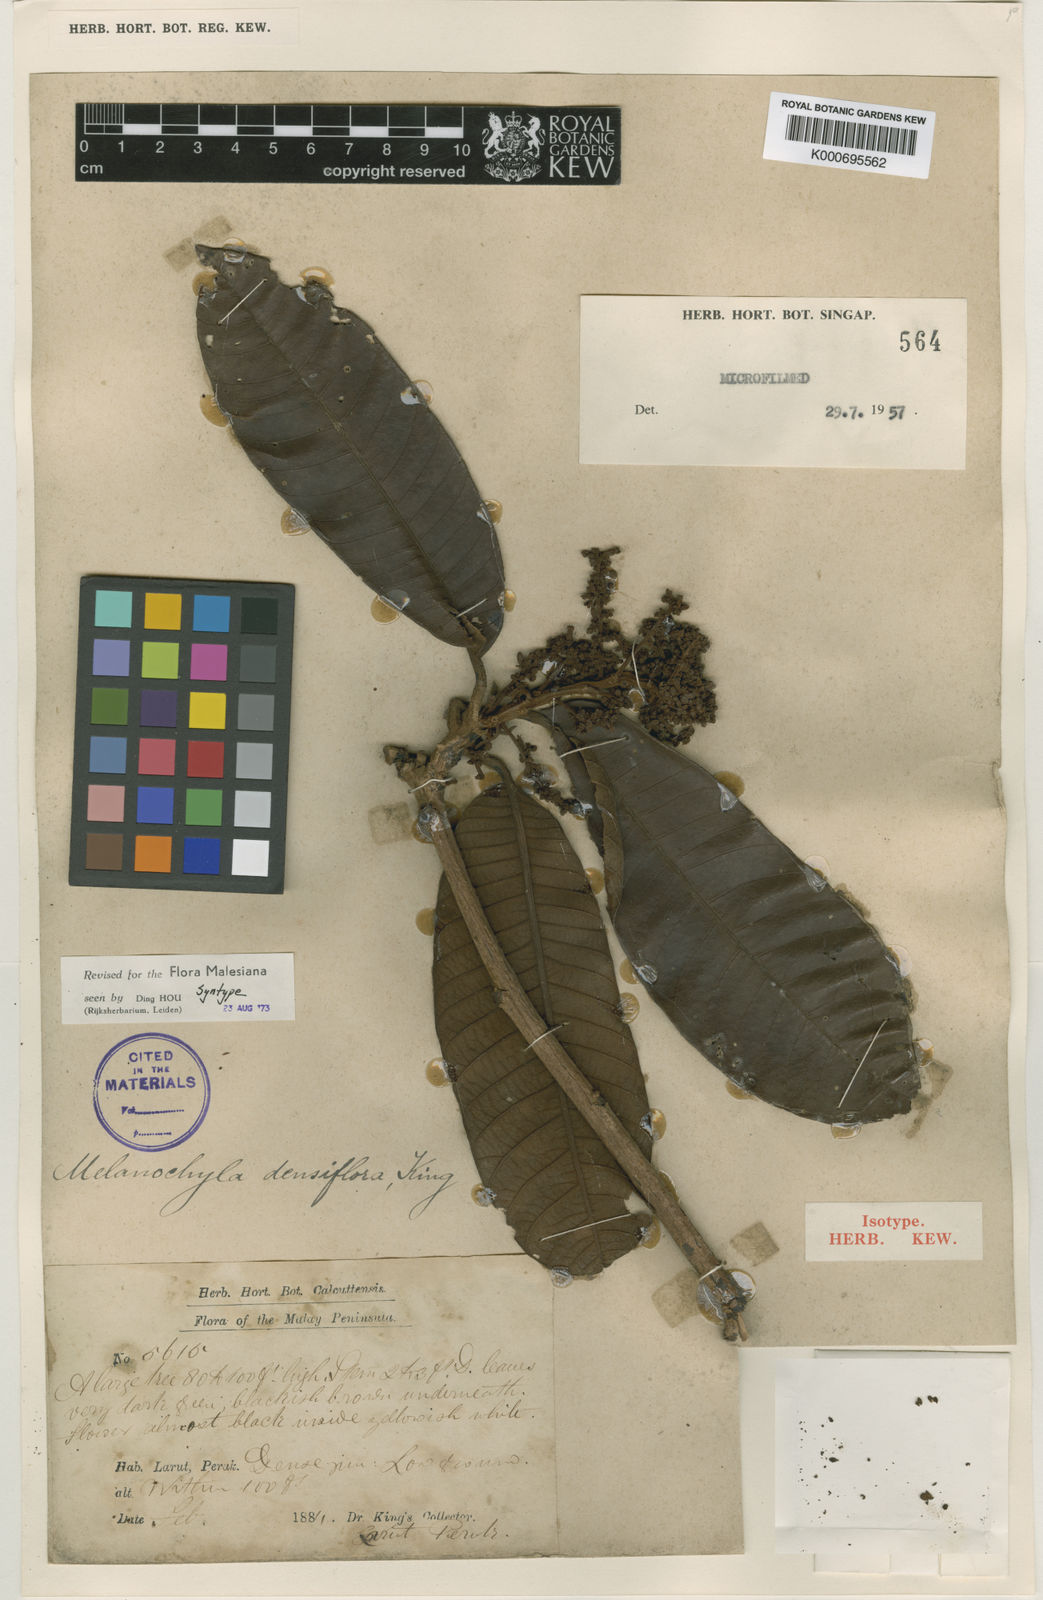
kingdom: Plantae
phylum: Tracheophyta
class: Magnoliopsida
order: Sapindales
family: Anacardiaceae
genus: Melanochyla
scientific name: Melanochyla densiflora
